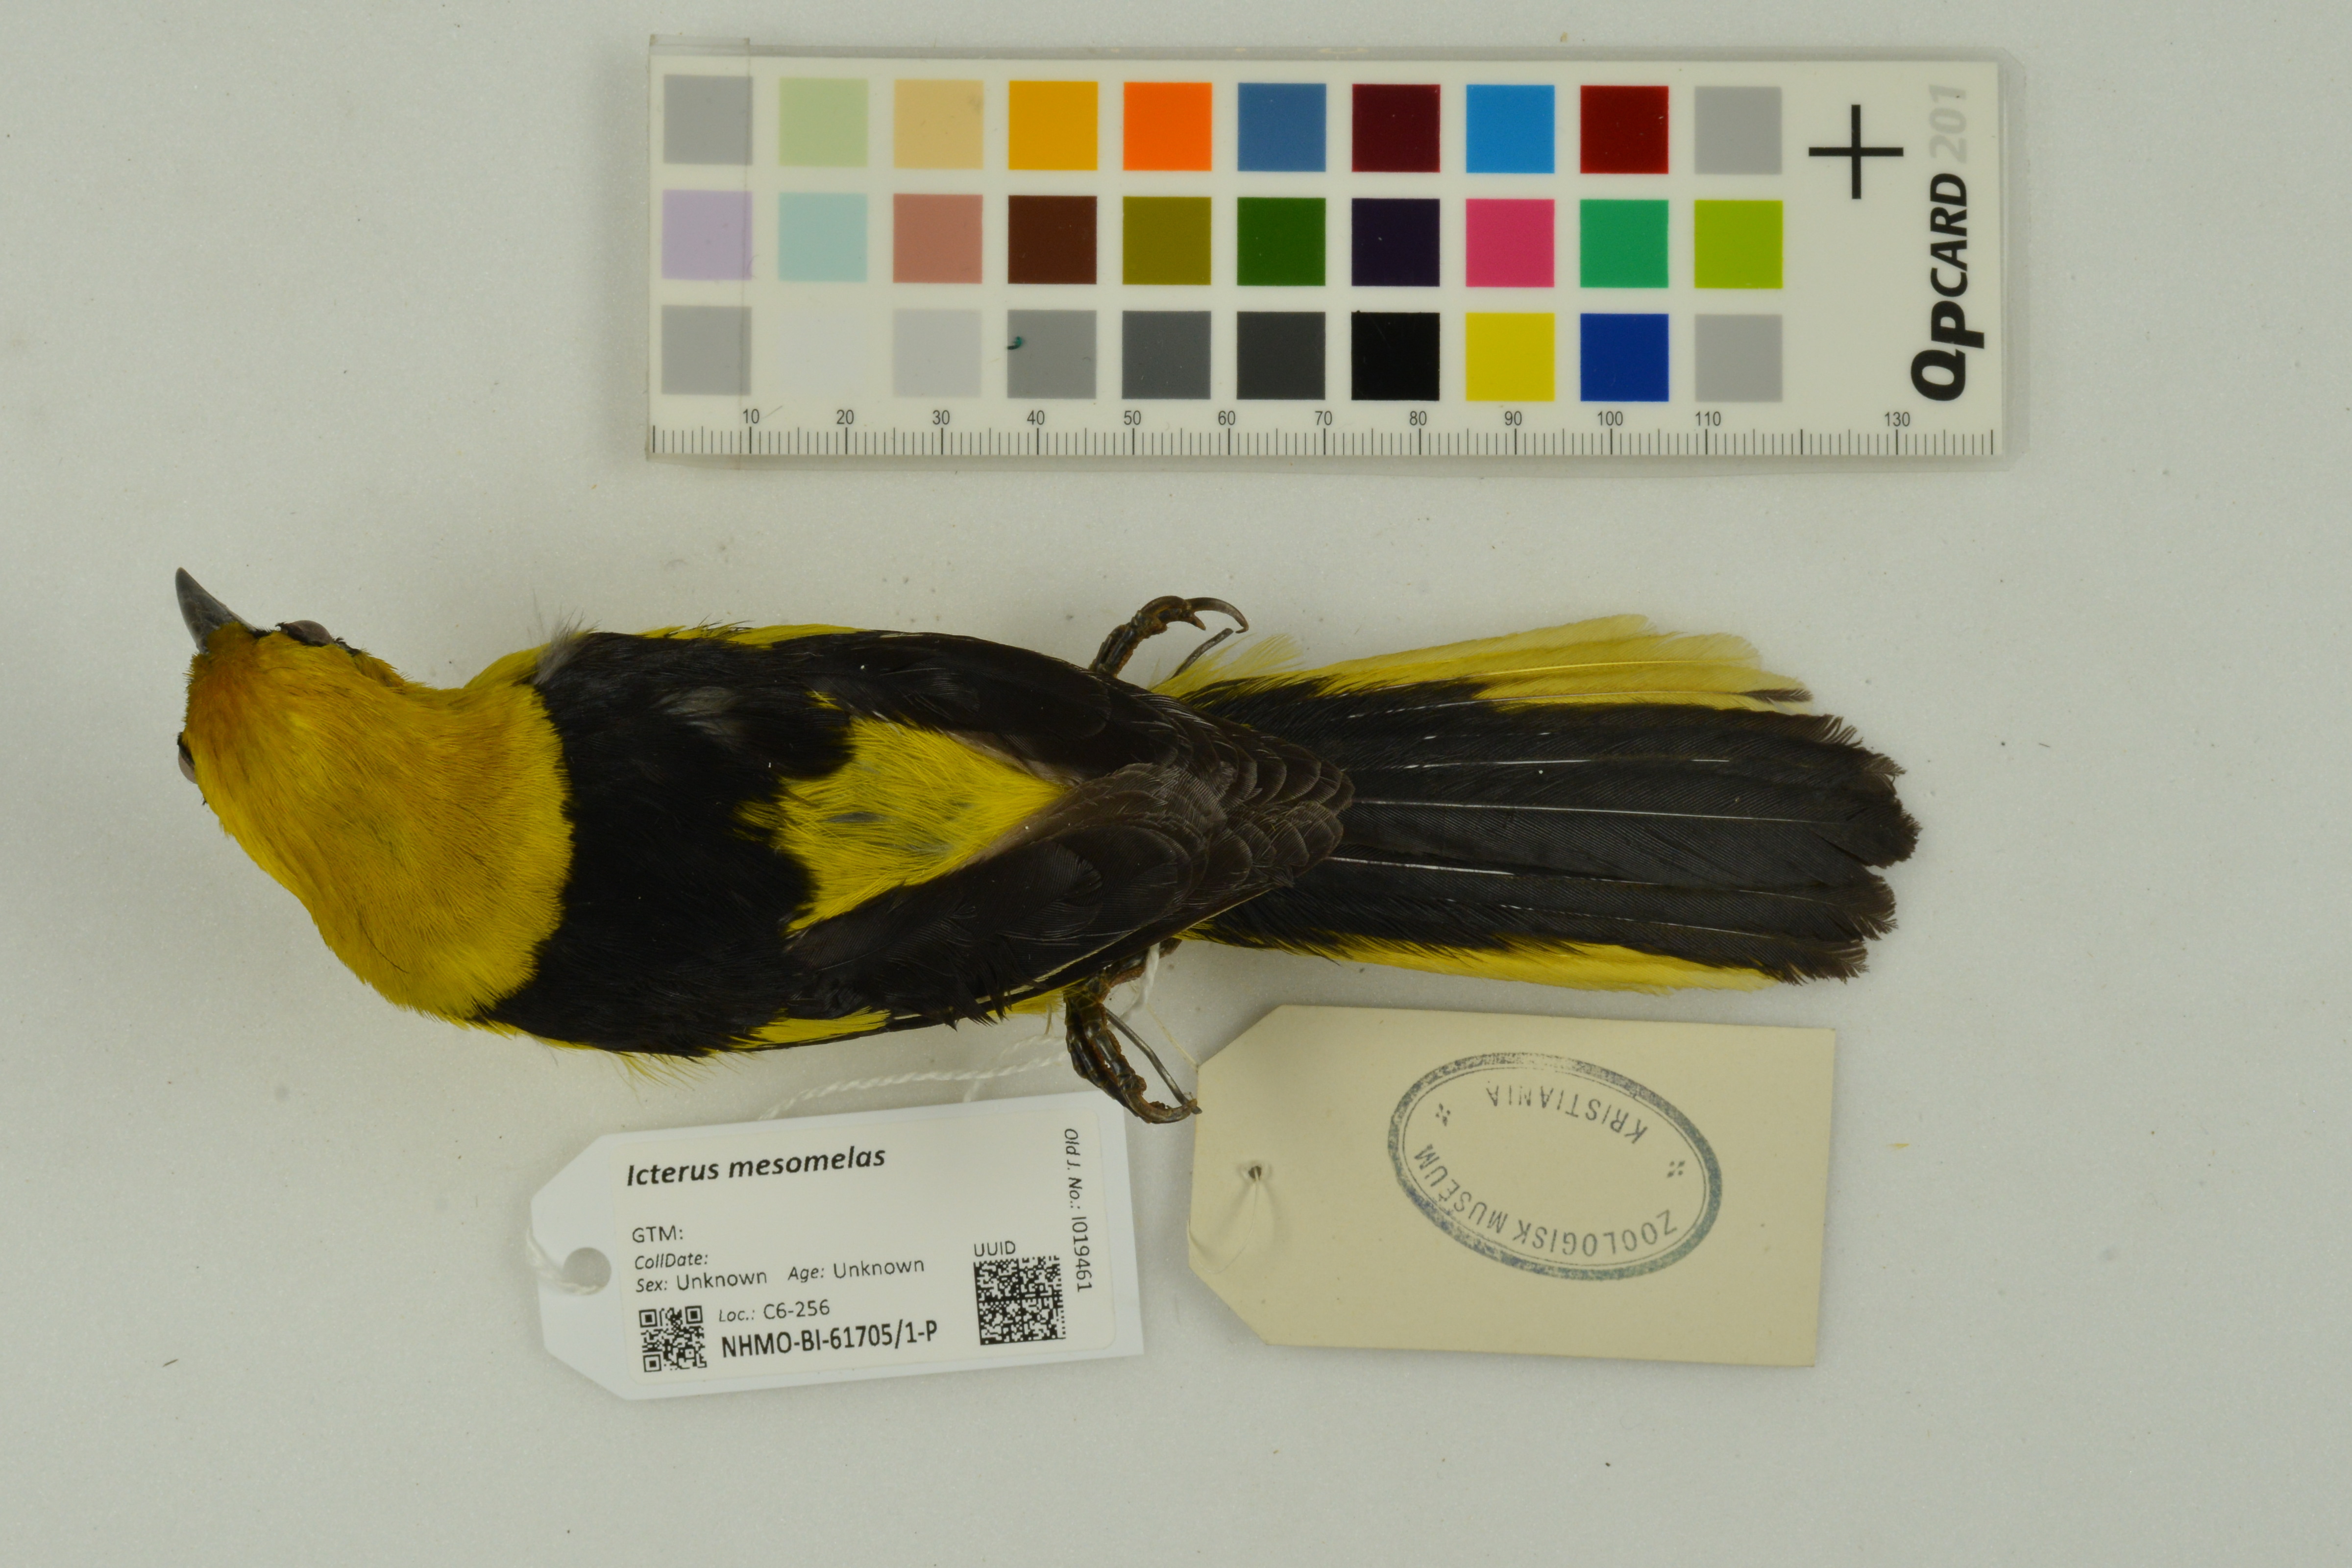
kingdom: Animalia
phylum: Chordata
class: Aves
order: Passeriformes
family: Icteridae
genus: Icterus
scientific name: Icterus mesomelas
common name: Yellow-tailed oriole
